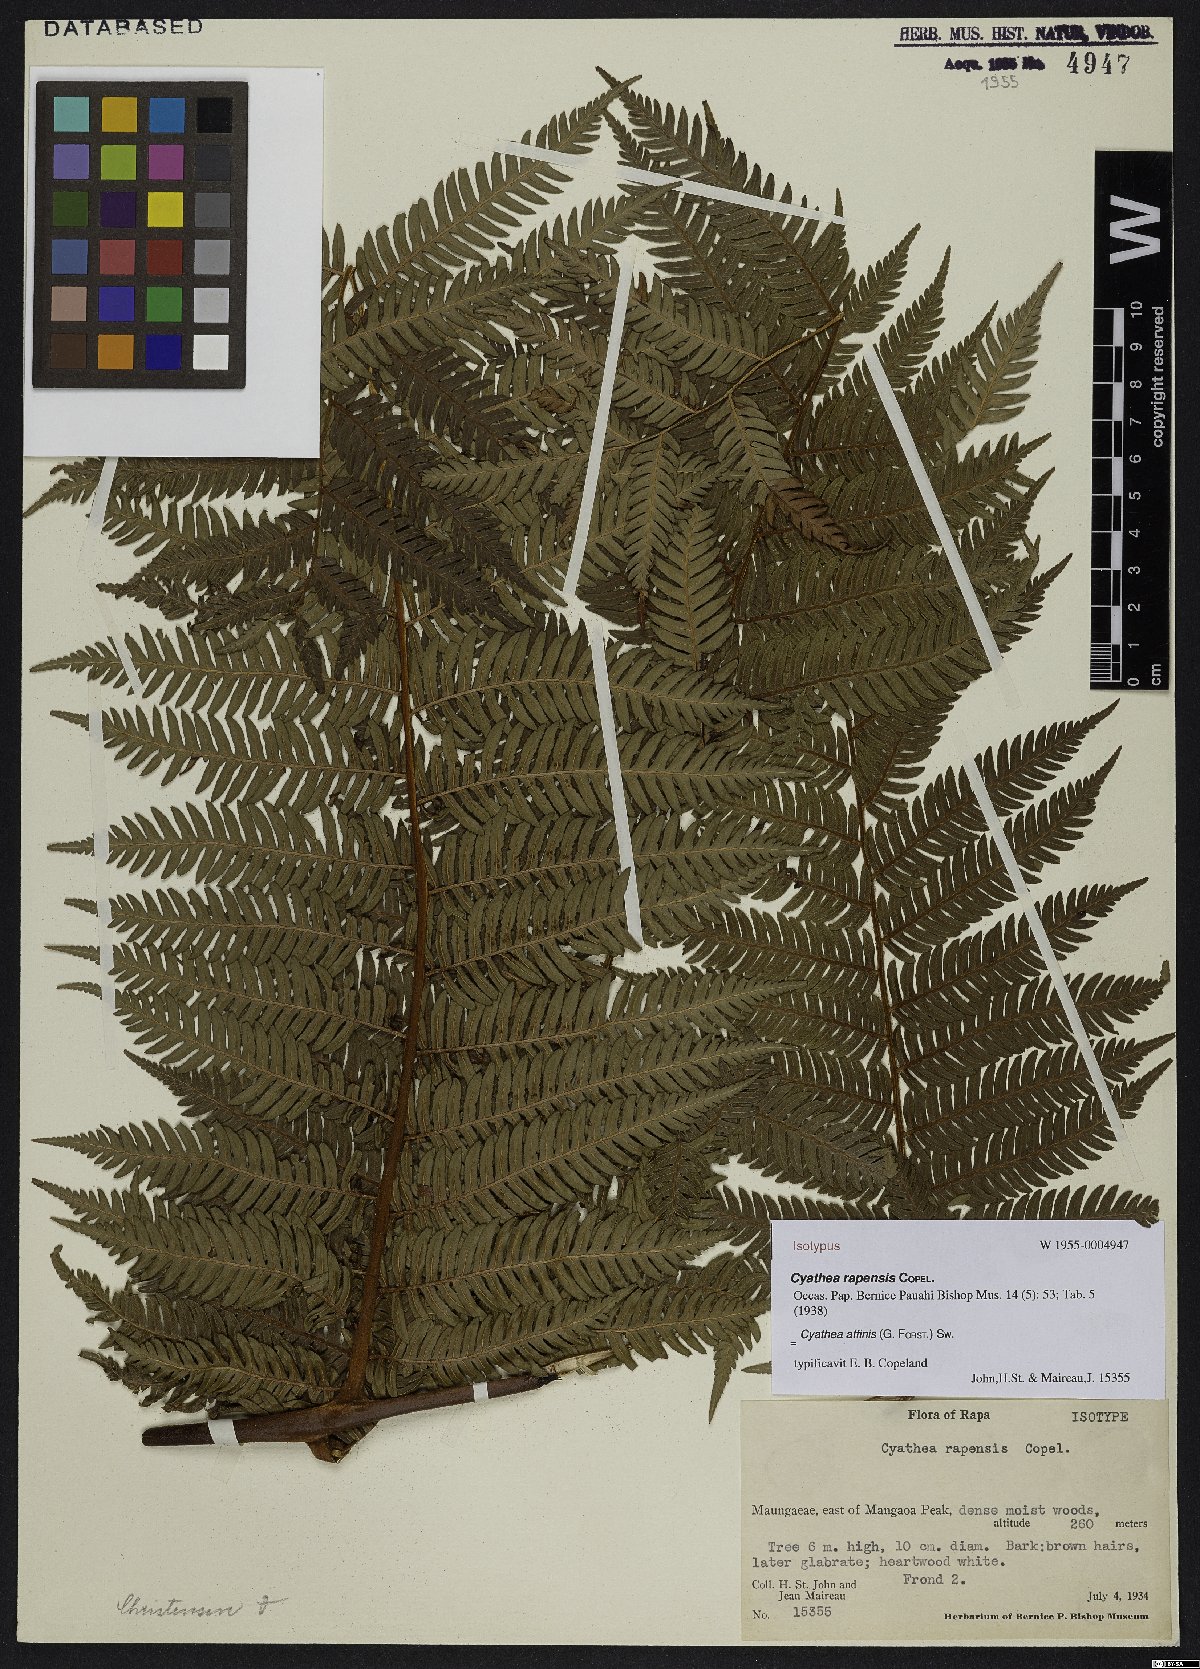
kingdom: Plantae
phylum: Tracheophyta
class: Polypodiopsida
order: Cyatheales
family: Cyatheaceae
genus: Alsophila
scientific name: Alsophila tahitensis
